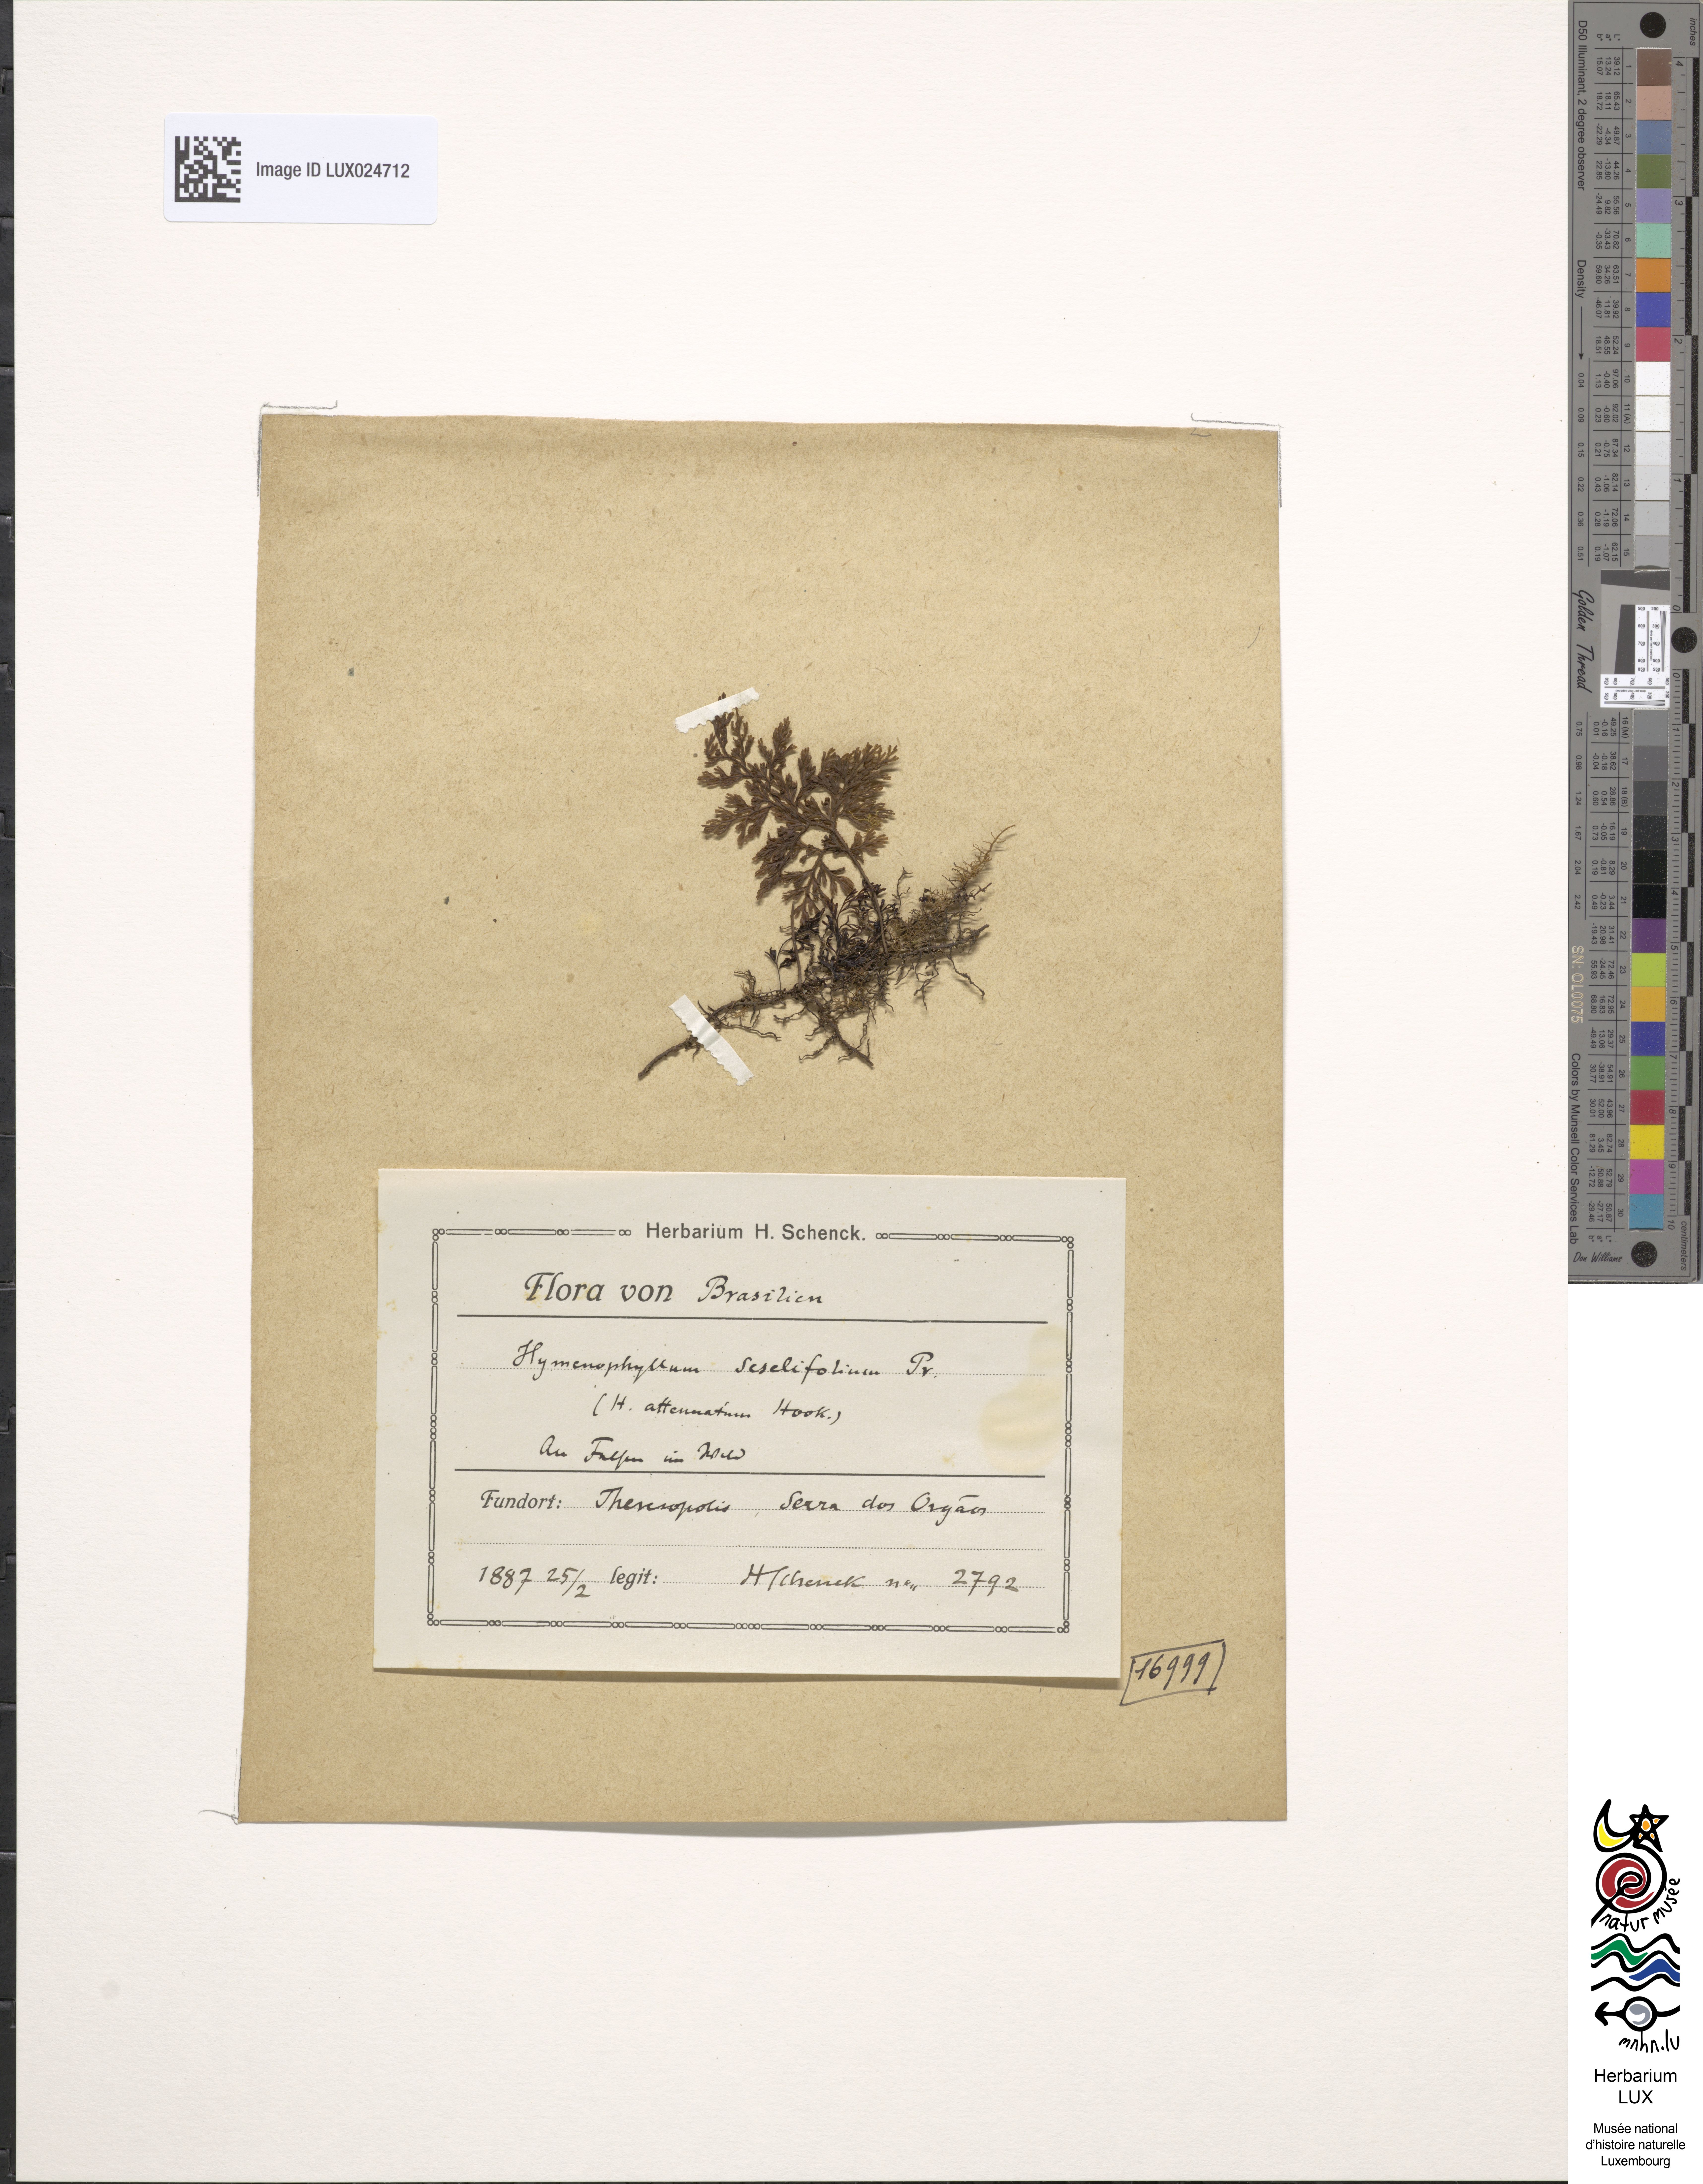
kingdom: Plantae
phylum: Tracheophyta
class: Polypodiopsida
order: Hymenophyllales
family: Hymenophyllaceae
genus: Hymenophyllum
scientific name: Hymenophyllum seselifolium
